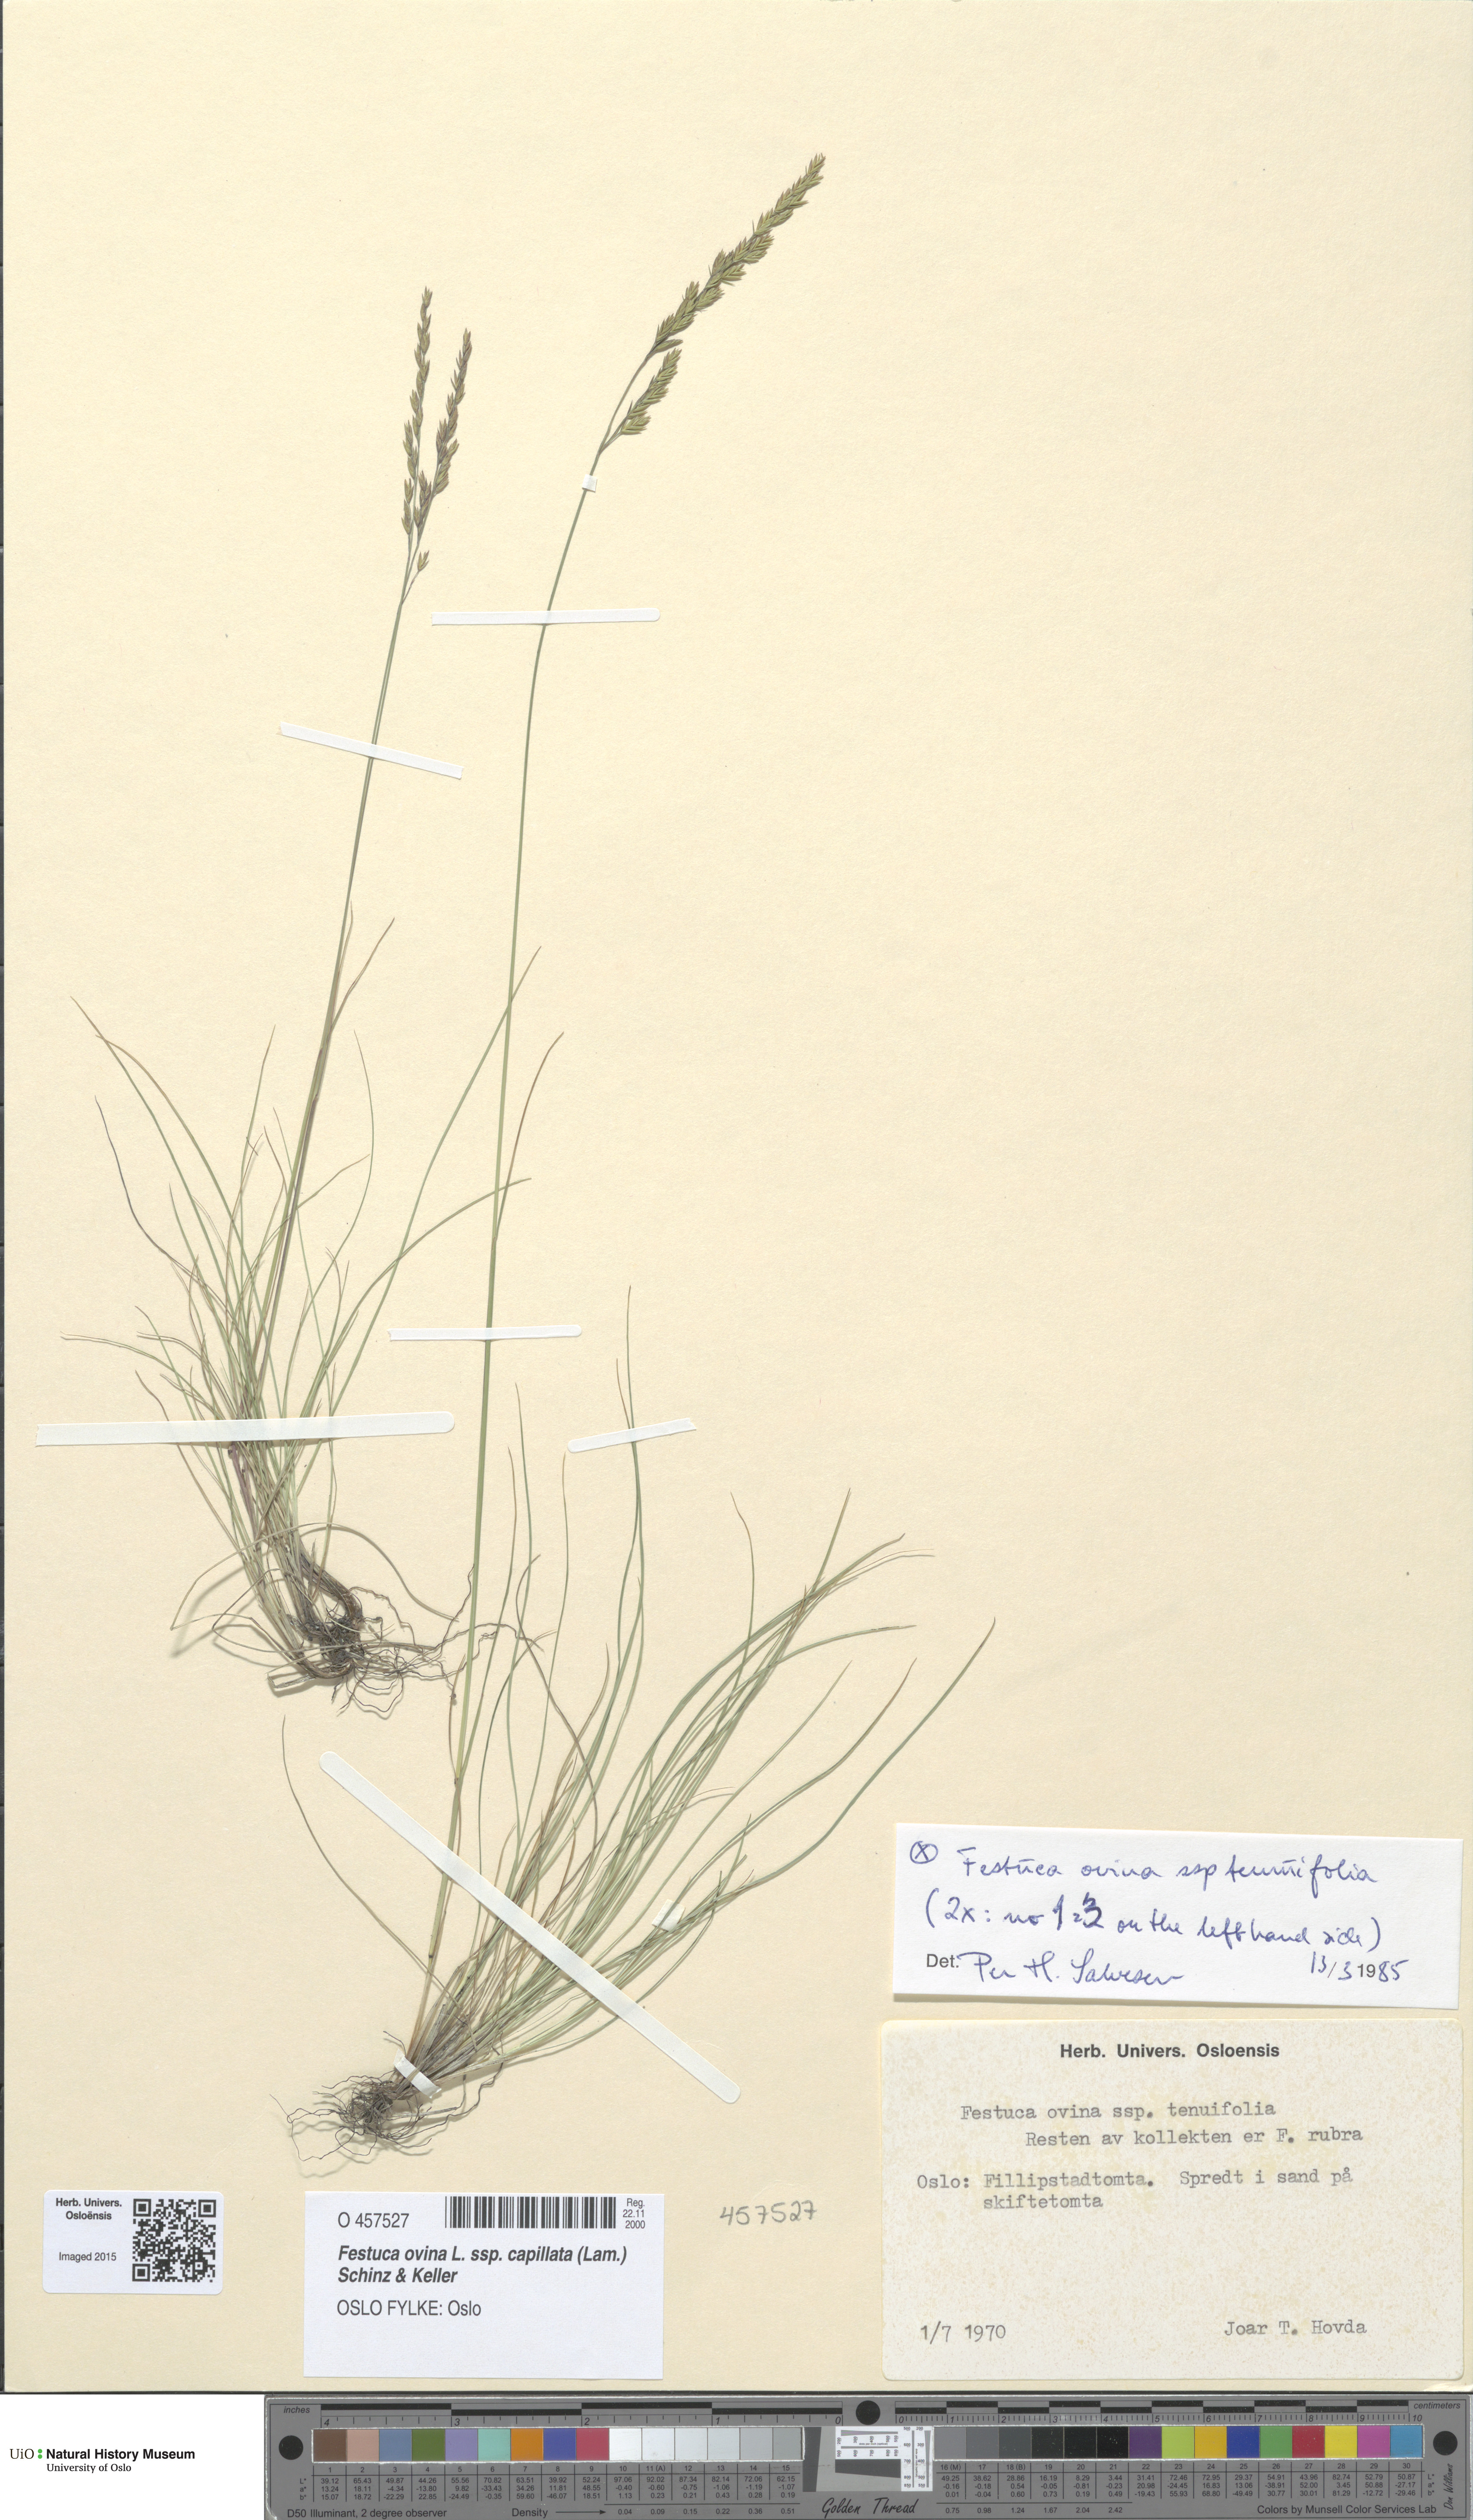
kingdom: Plantae
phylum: Tracheophyta
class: Liliopsida
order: Poales
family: Poaceae
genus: Festuca
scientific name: Festuca filiformis
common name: Fine-leaved sheep's-fescue
